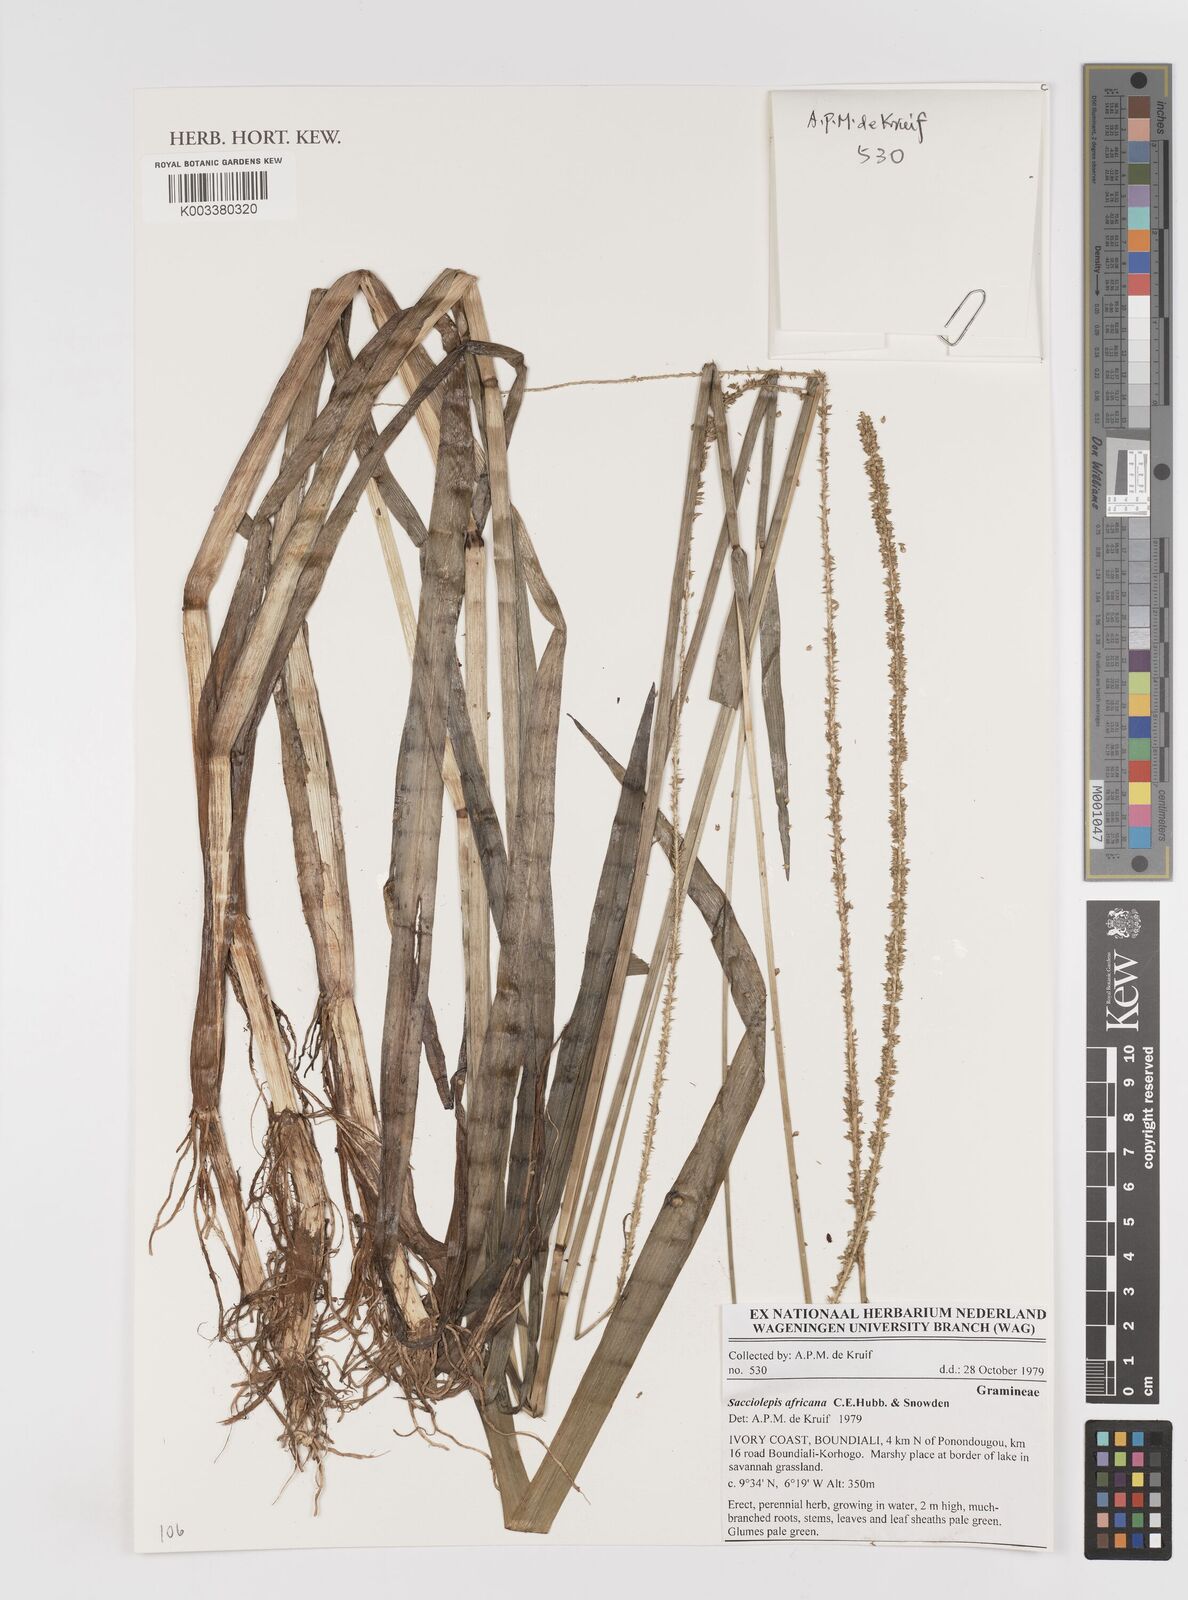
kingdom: Plantae
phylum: Tracheophyta
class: Liliopsida
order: Poales
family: Poaceae
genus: Sacciolepis
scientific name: Sacciolepis africana
